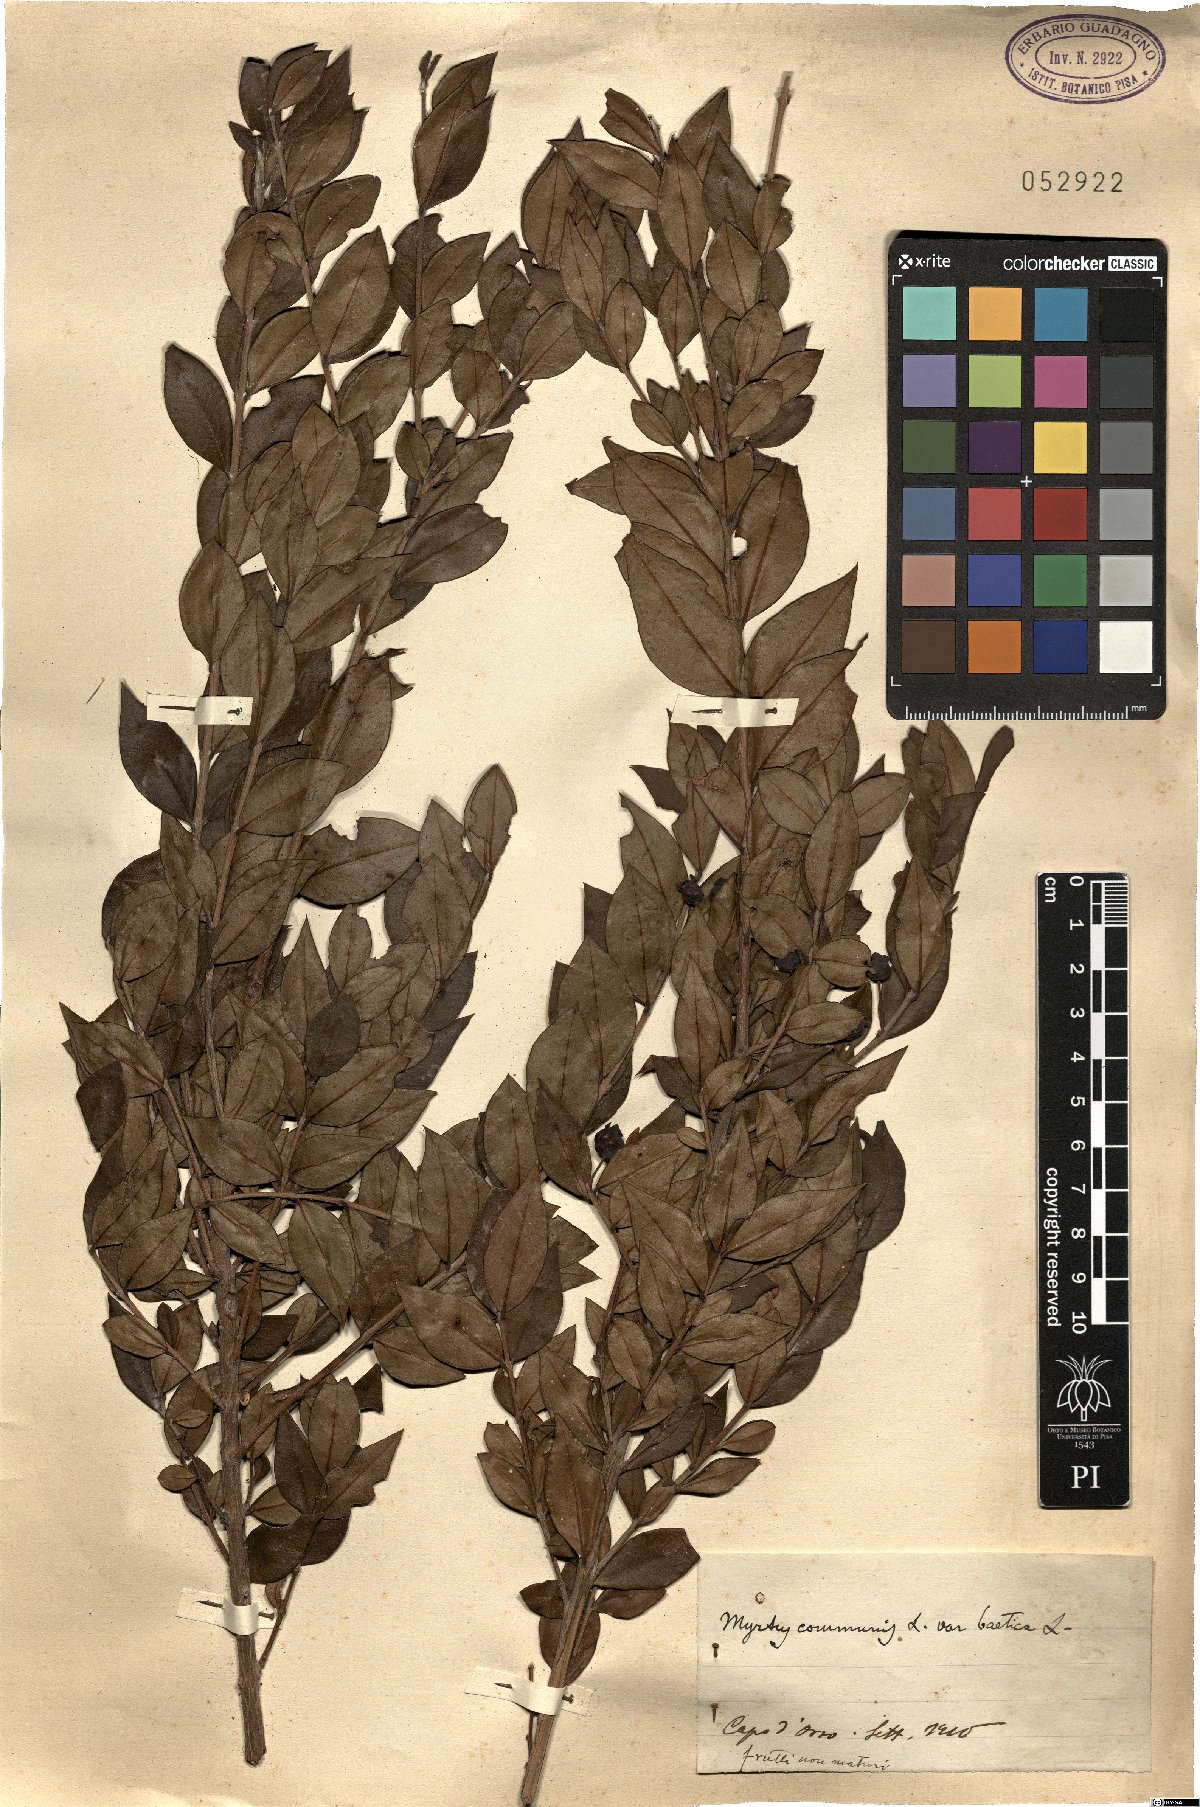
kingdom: Plantae
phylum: Tracheophyta
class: Magnoliopsida
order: Myrtales
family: Myrtaceae
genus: Myrtus
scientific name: Myrtus communis
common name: Myrtle
